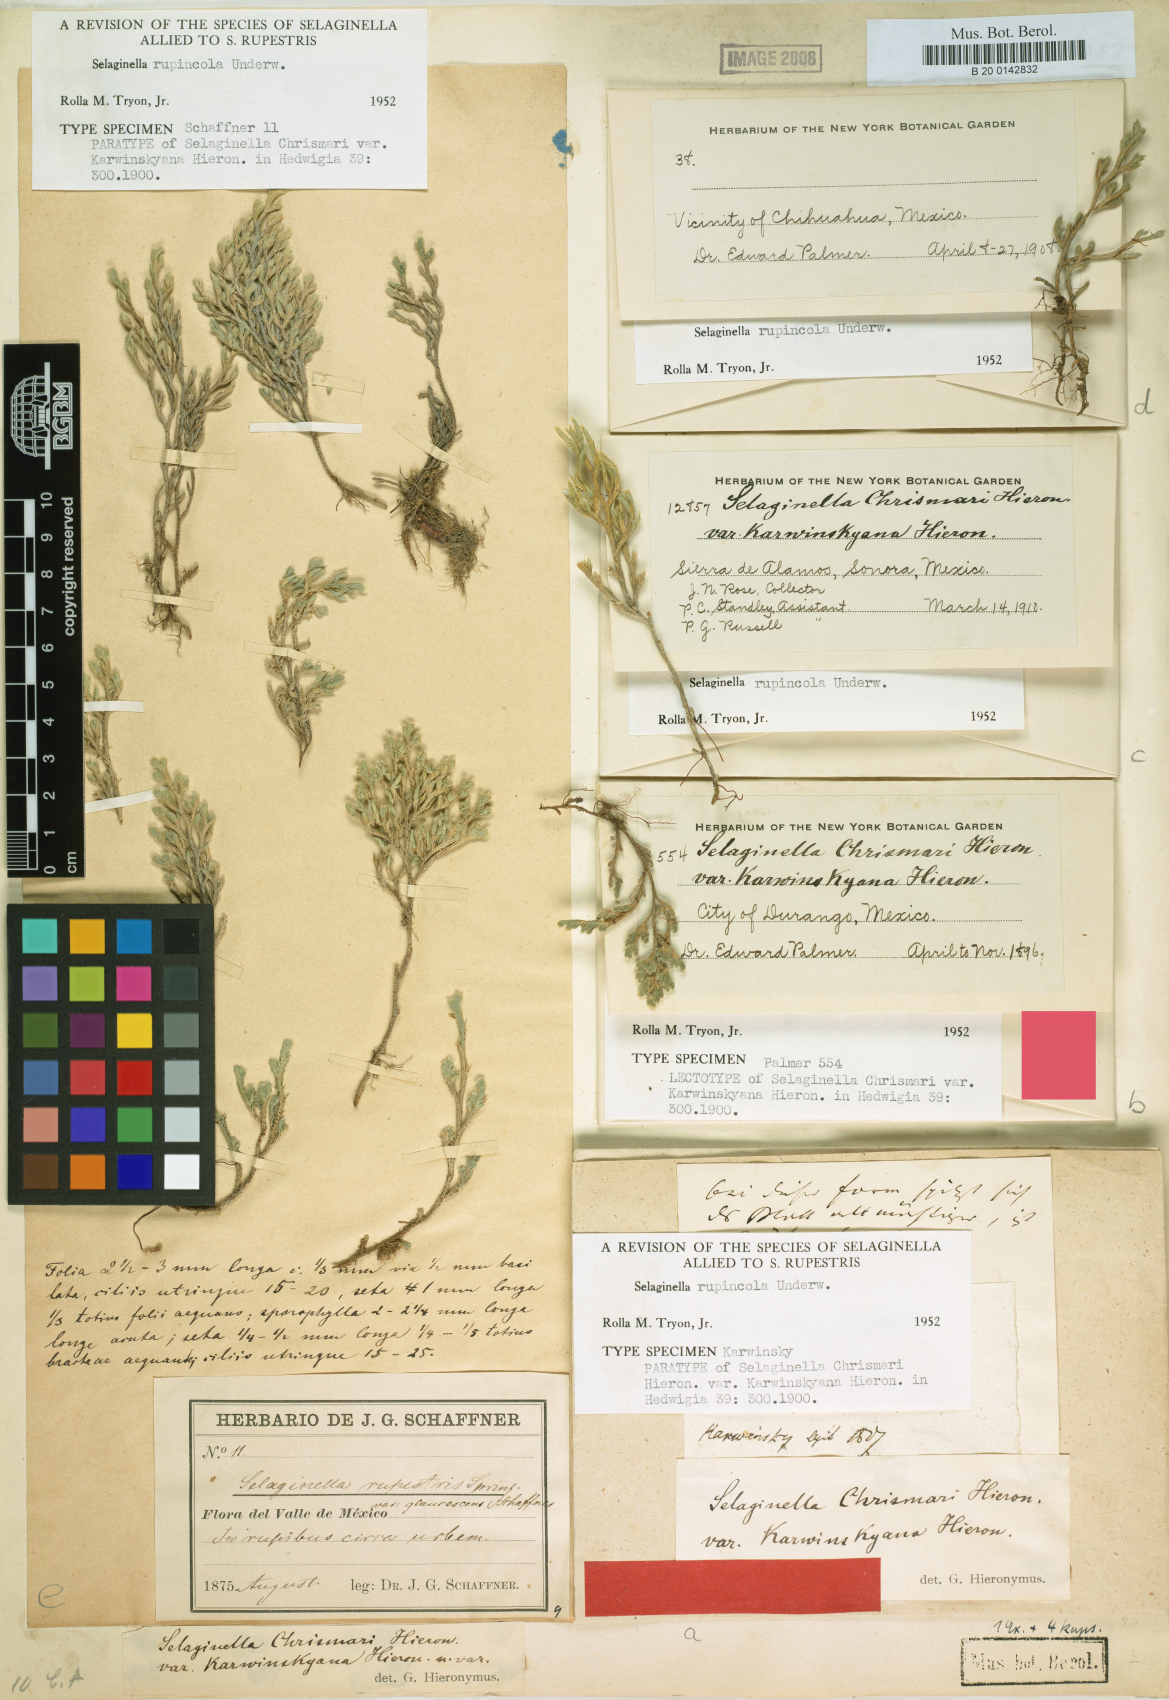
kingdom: Plantae
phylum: Tracheophyta
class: Lycopodiopsida
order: Selaginellales
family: Selaginellaceae
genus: Selaginella
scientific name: Selaginella rupincola
